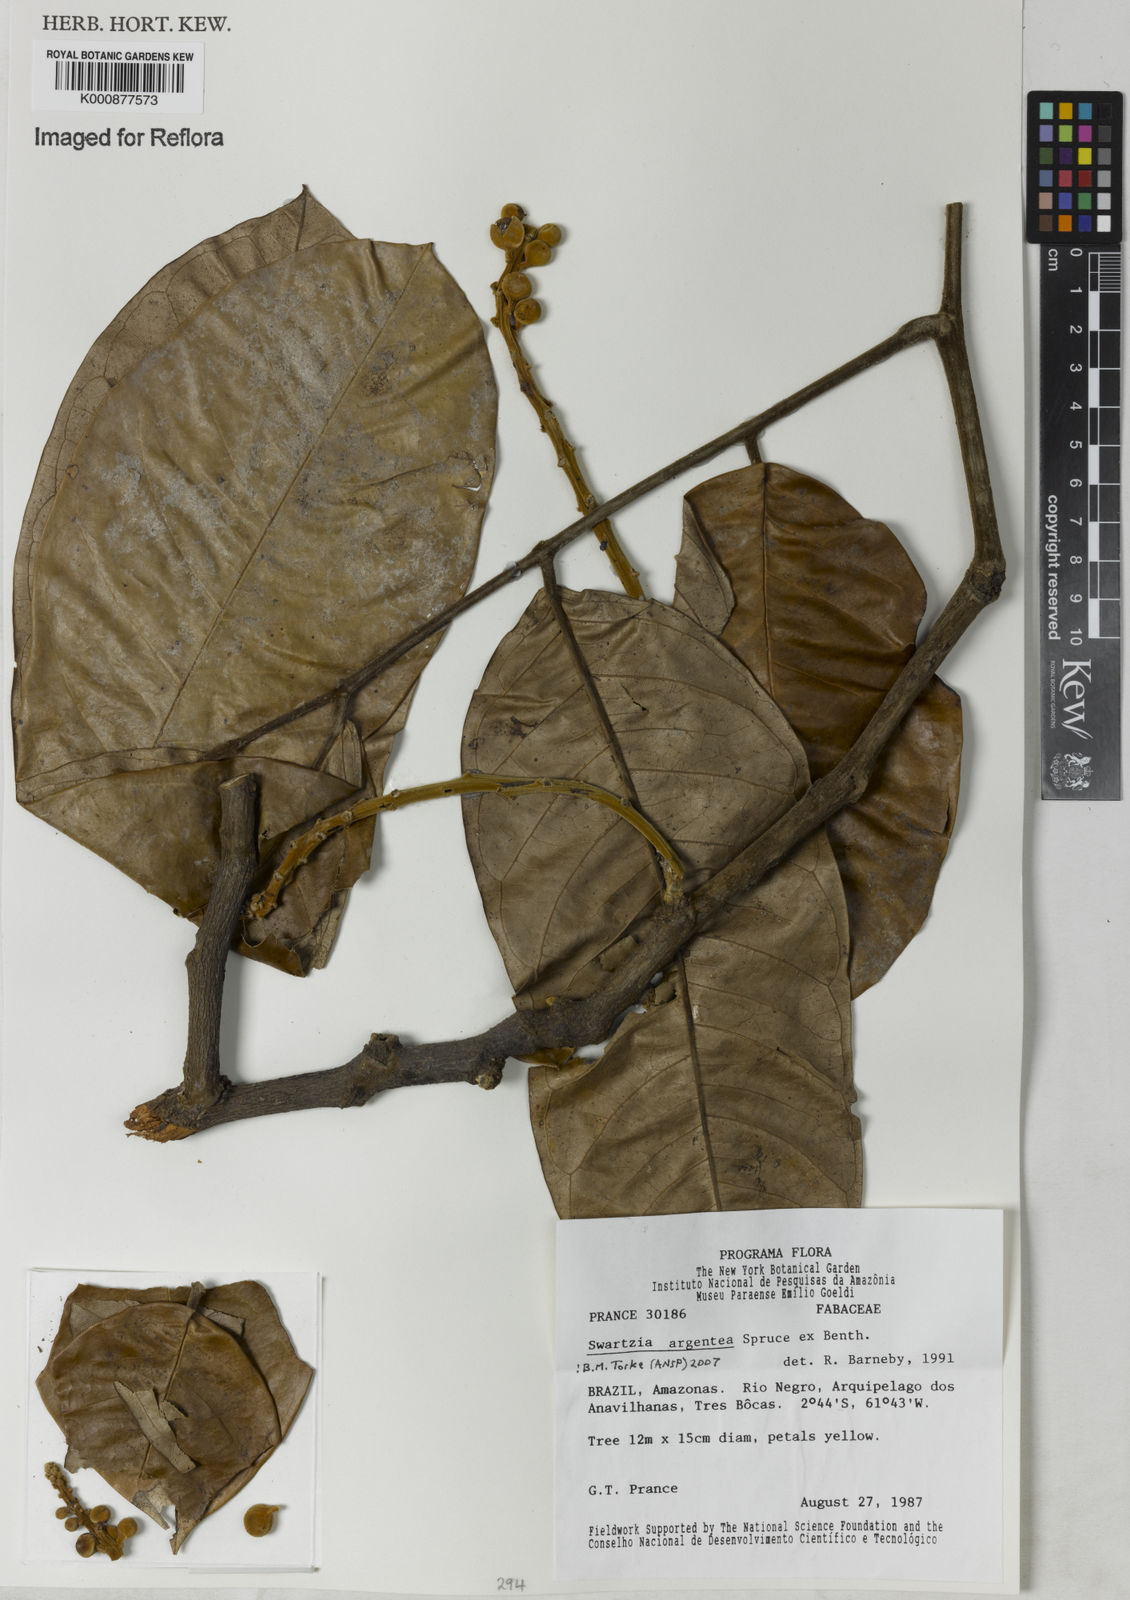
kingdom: Plantae
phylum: Tracheophyta
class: Magnoliopsida
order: Fabales
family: Fabaceae
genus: Swartzia
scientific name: Swartzia argentea
